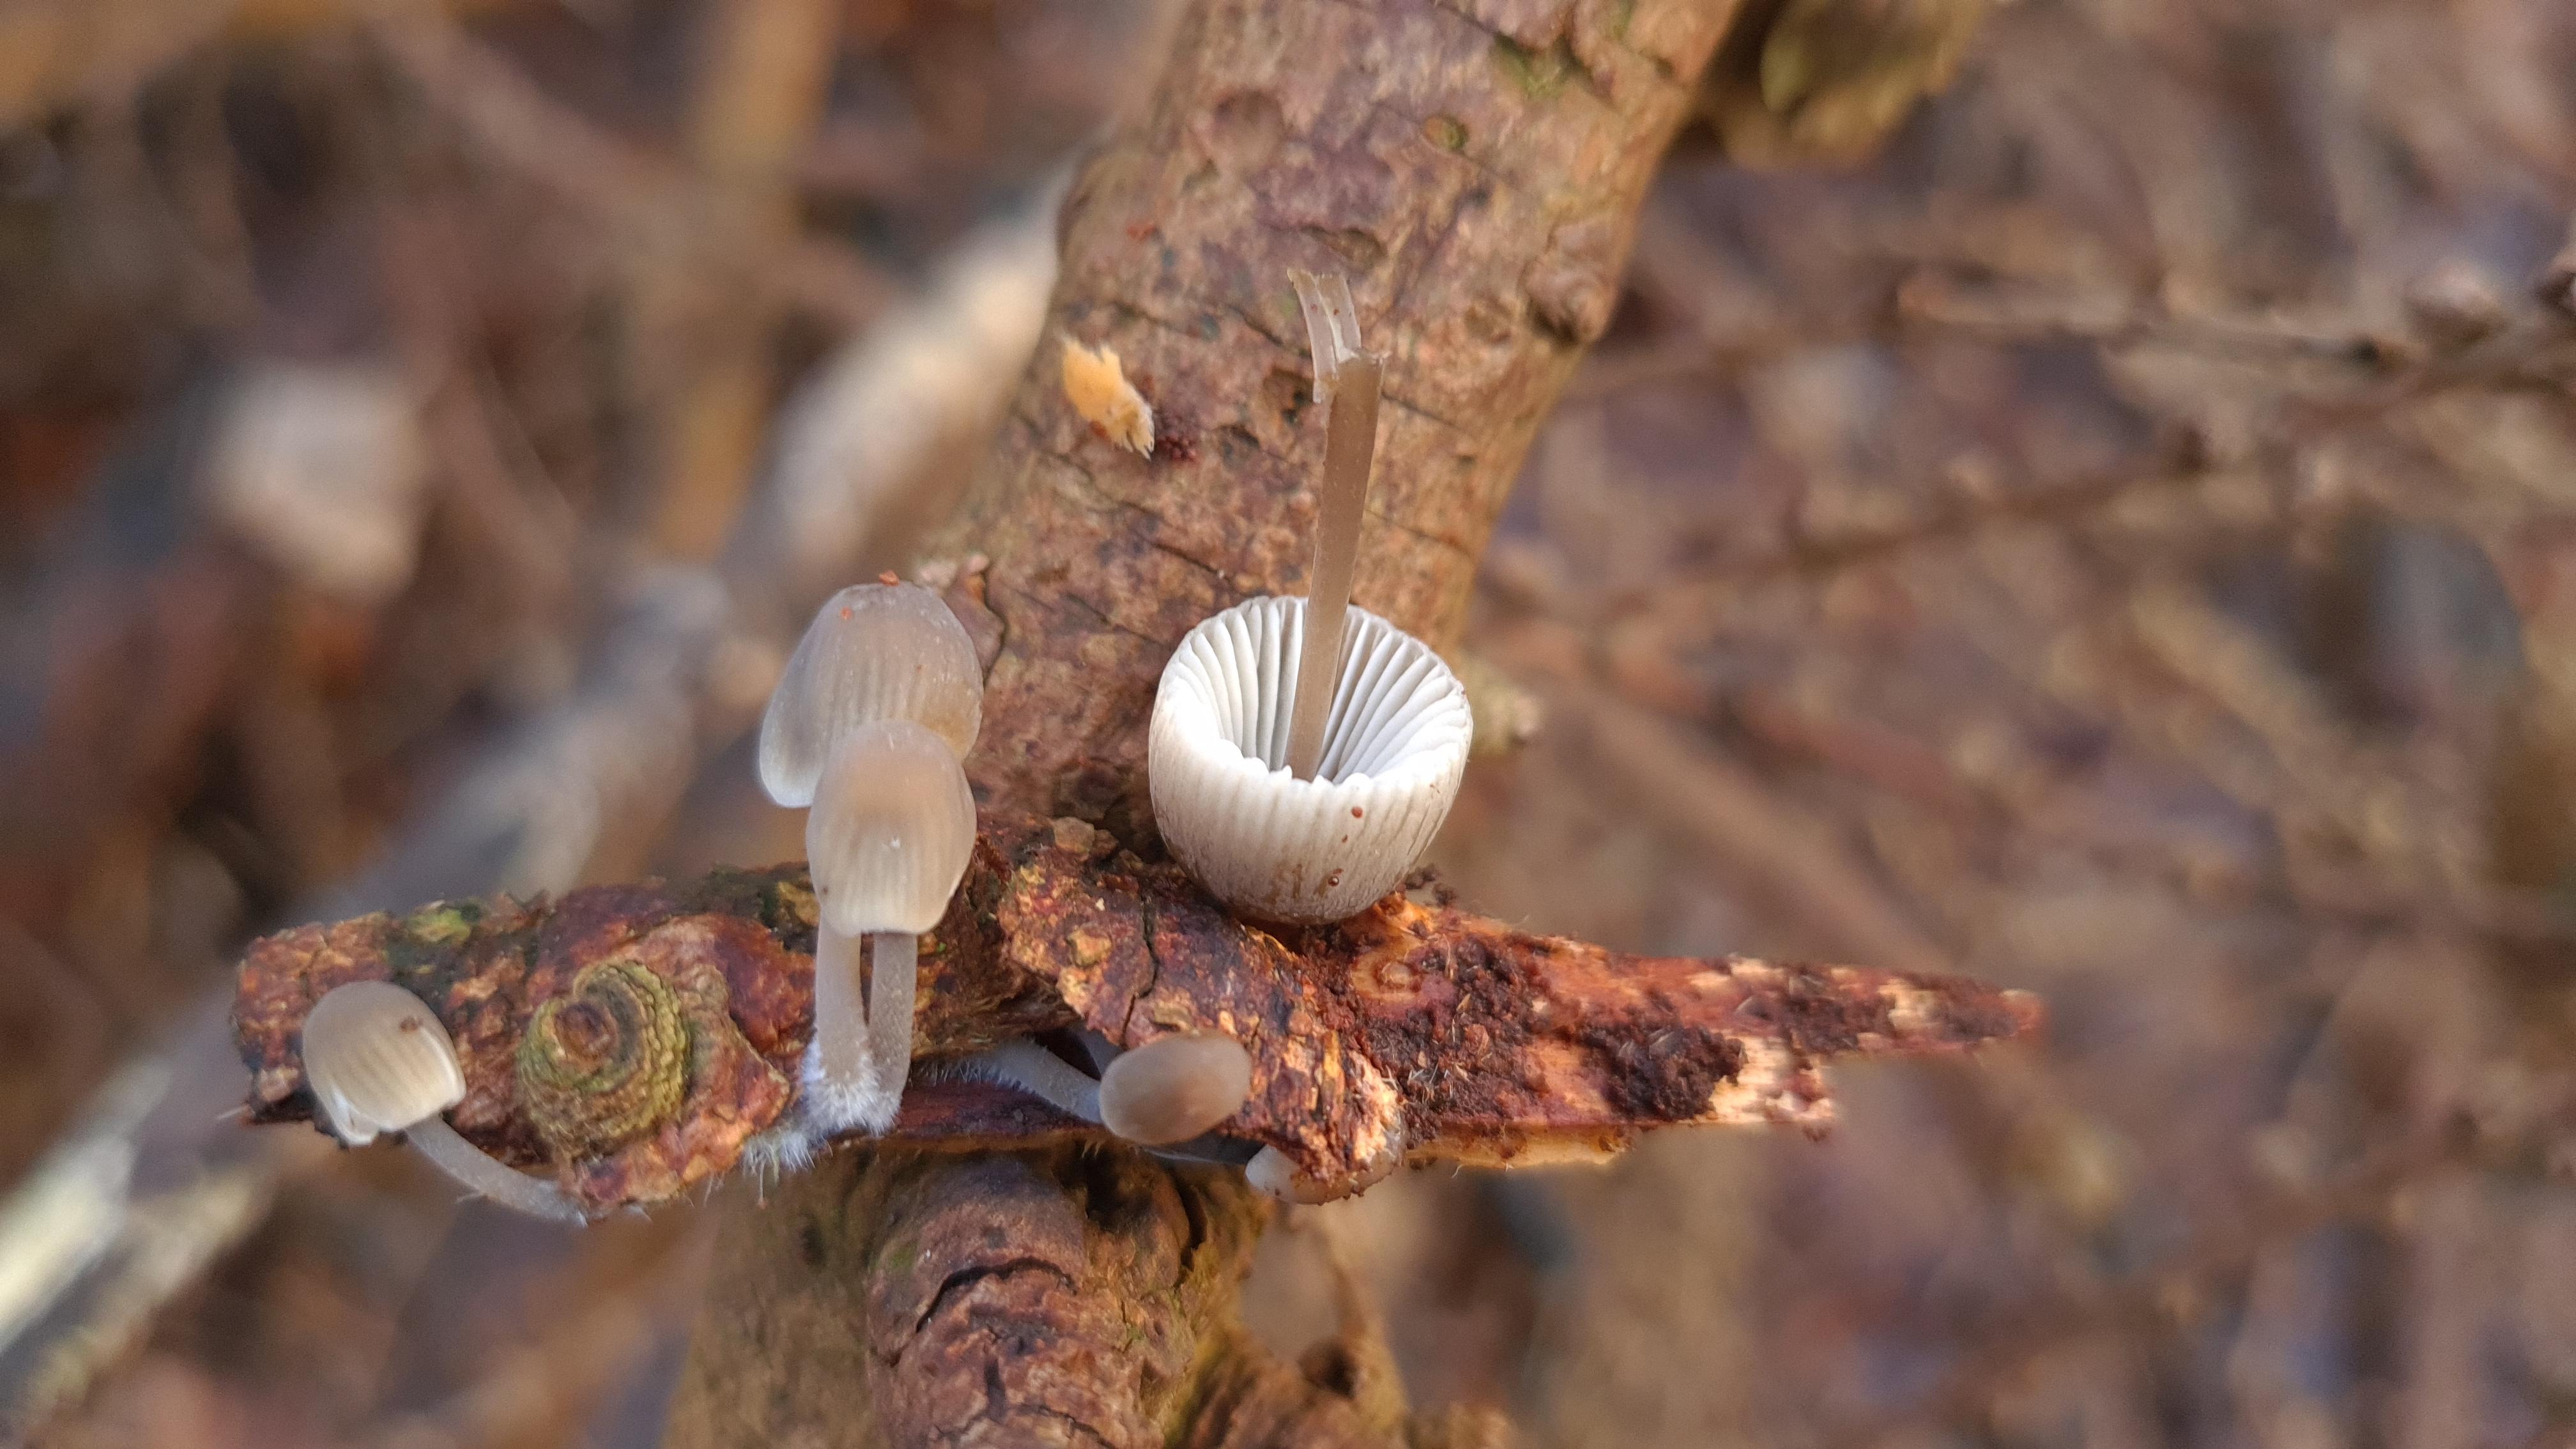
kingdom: Fungi
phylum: Basidiomycota
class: Agaricomycetes
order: Agaricales
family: Mycenaceae
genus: Mycena
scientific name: Mycena
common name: huesvamp
